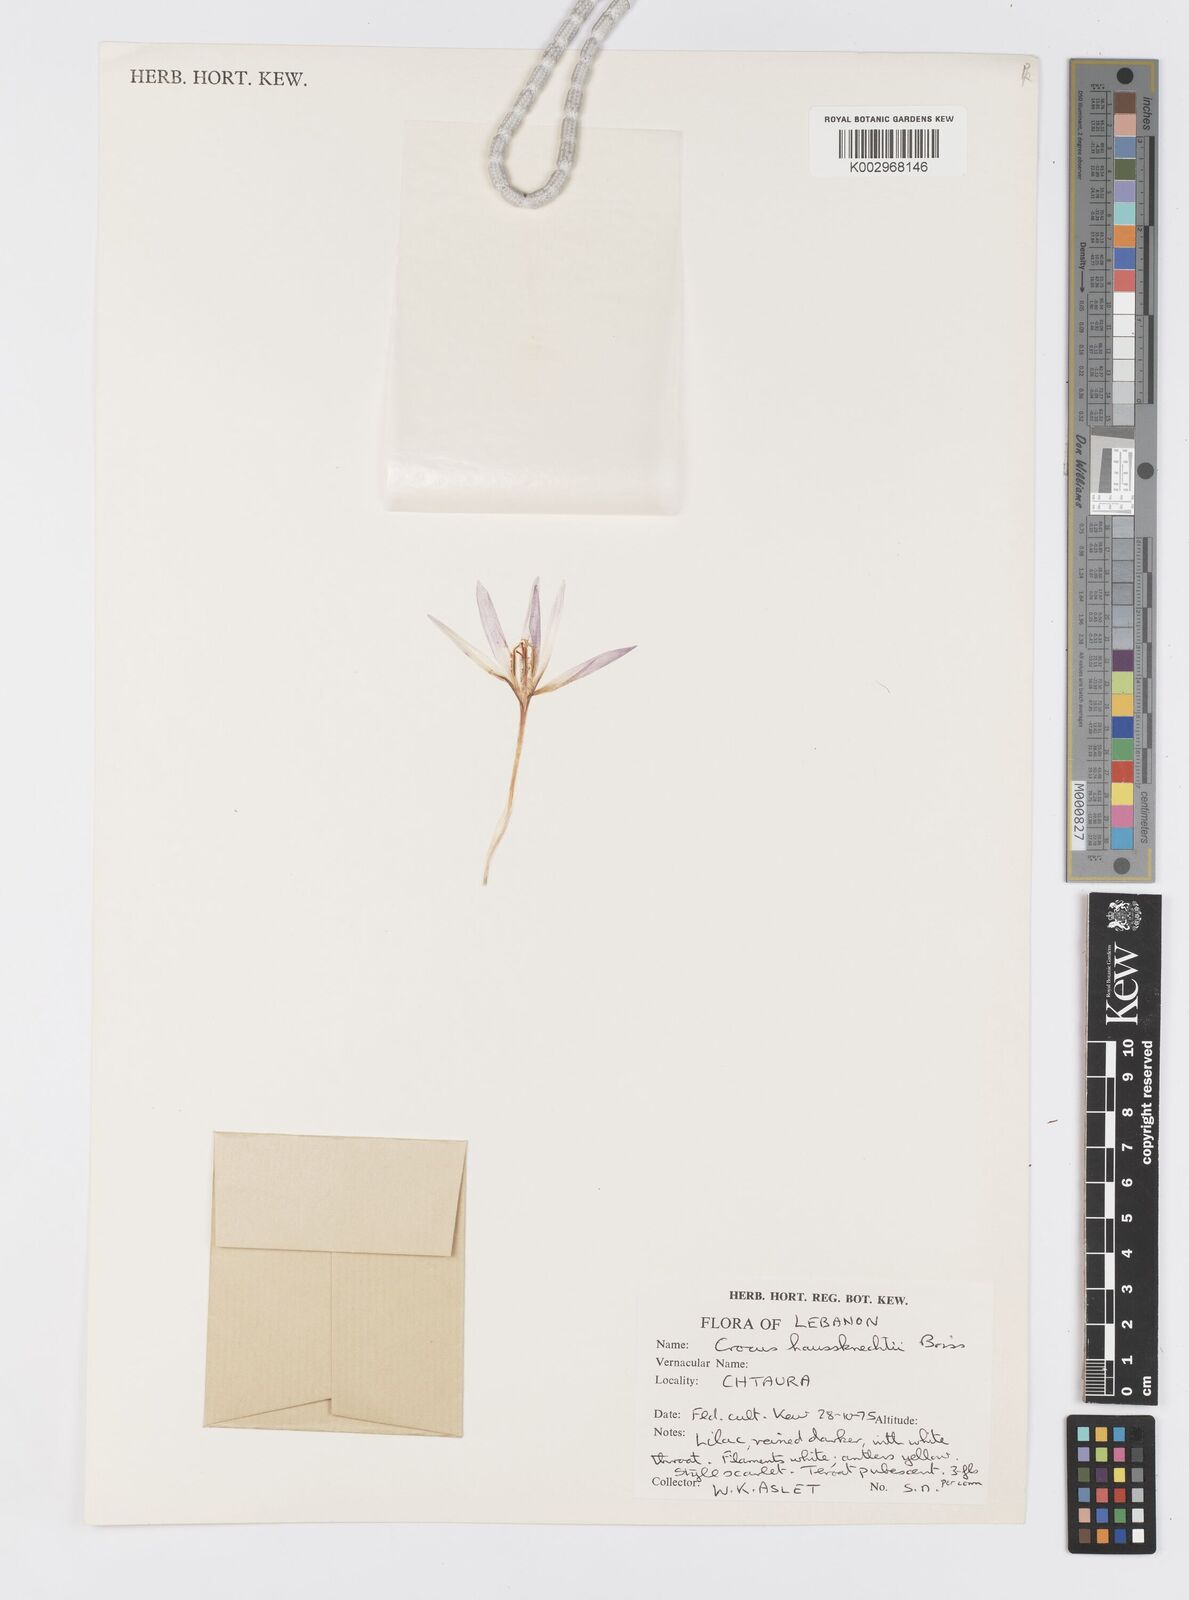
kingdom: Plantae
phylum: Tracheophyta
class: Liliopsida
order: Asparagales
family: Iridaceae
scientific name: Iridaceae
